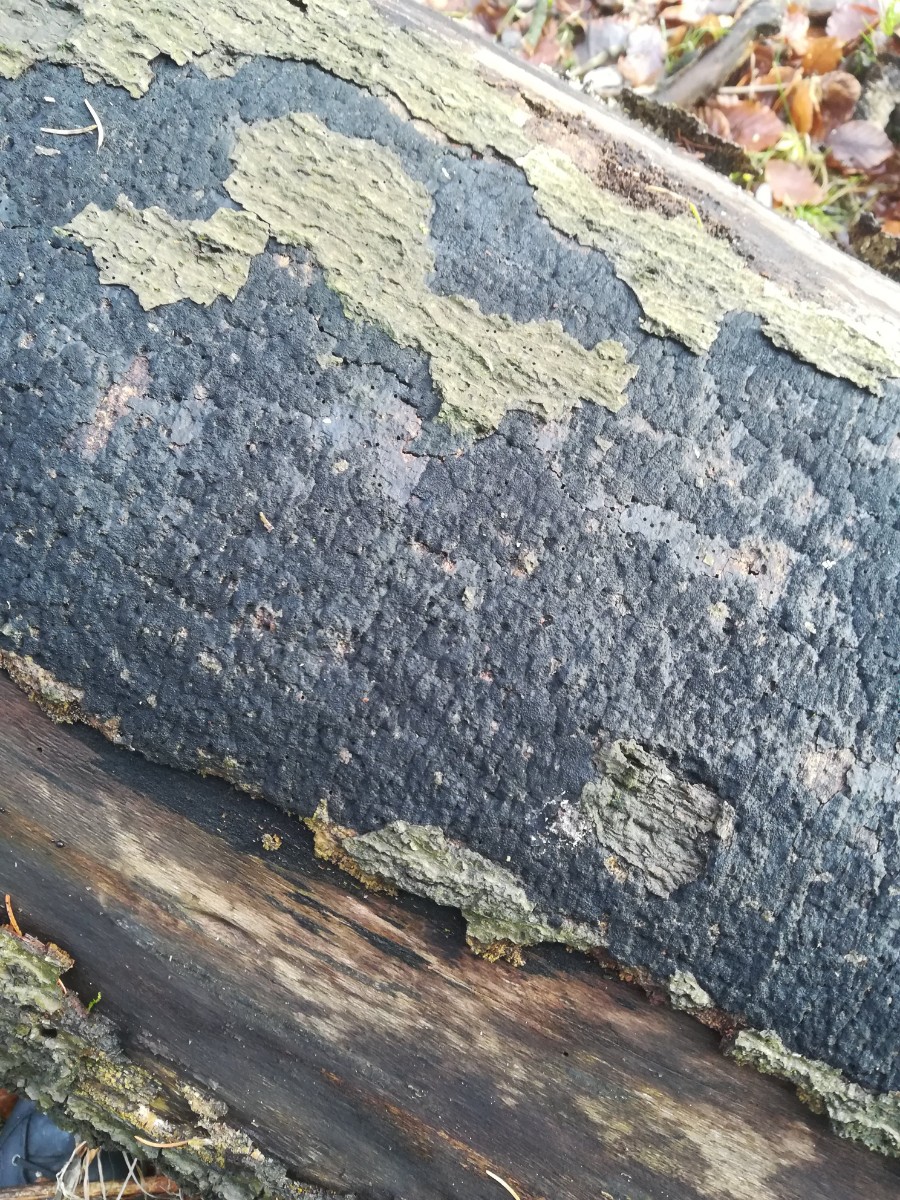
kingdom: Fungi
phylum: Ascomycota
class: Sordariomycetes
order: Xylariales
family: Diatrypaceae
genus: Eutypa
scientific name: Eutypa spinosa
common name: grov kulskorpe
